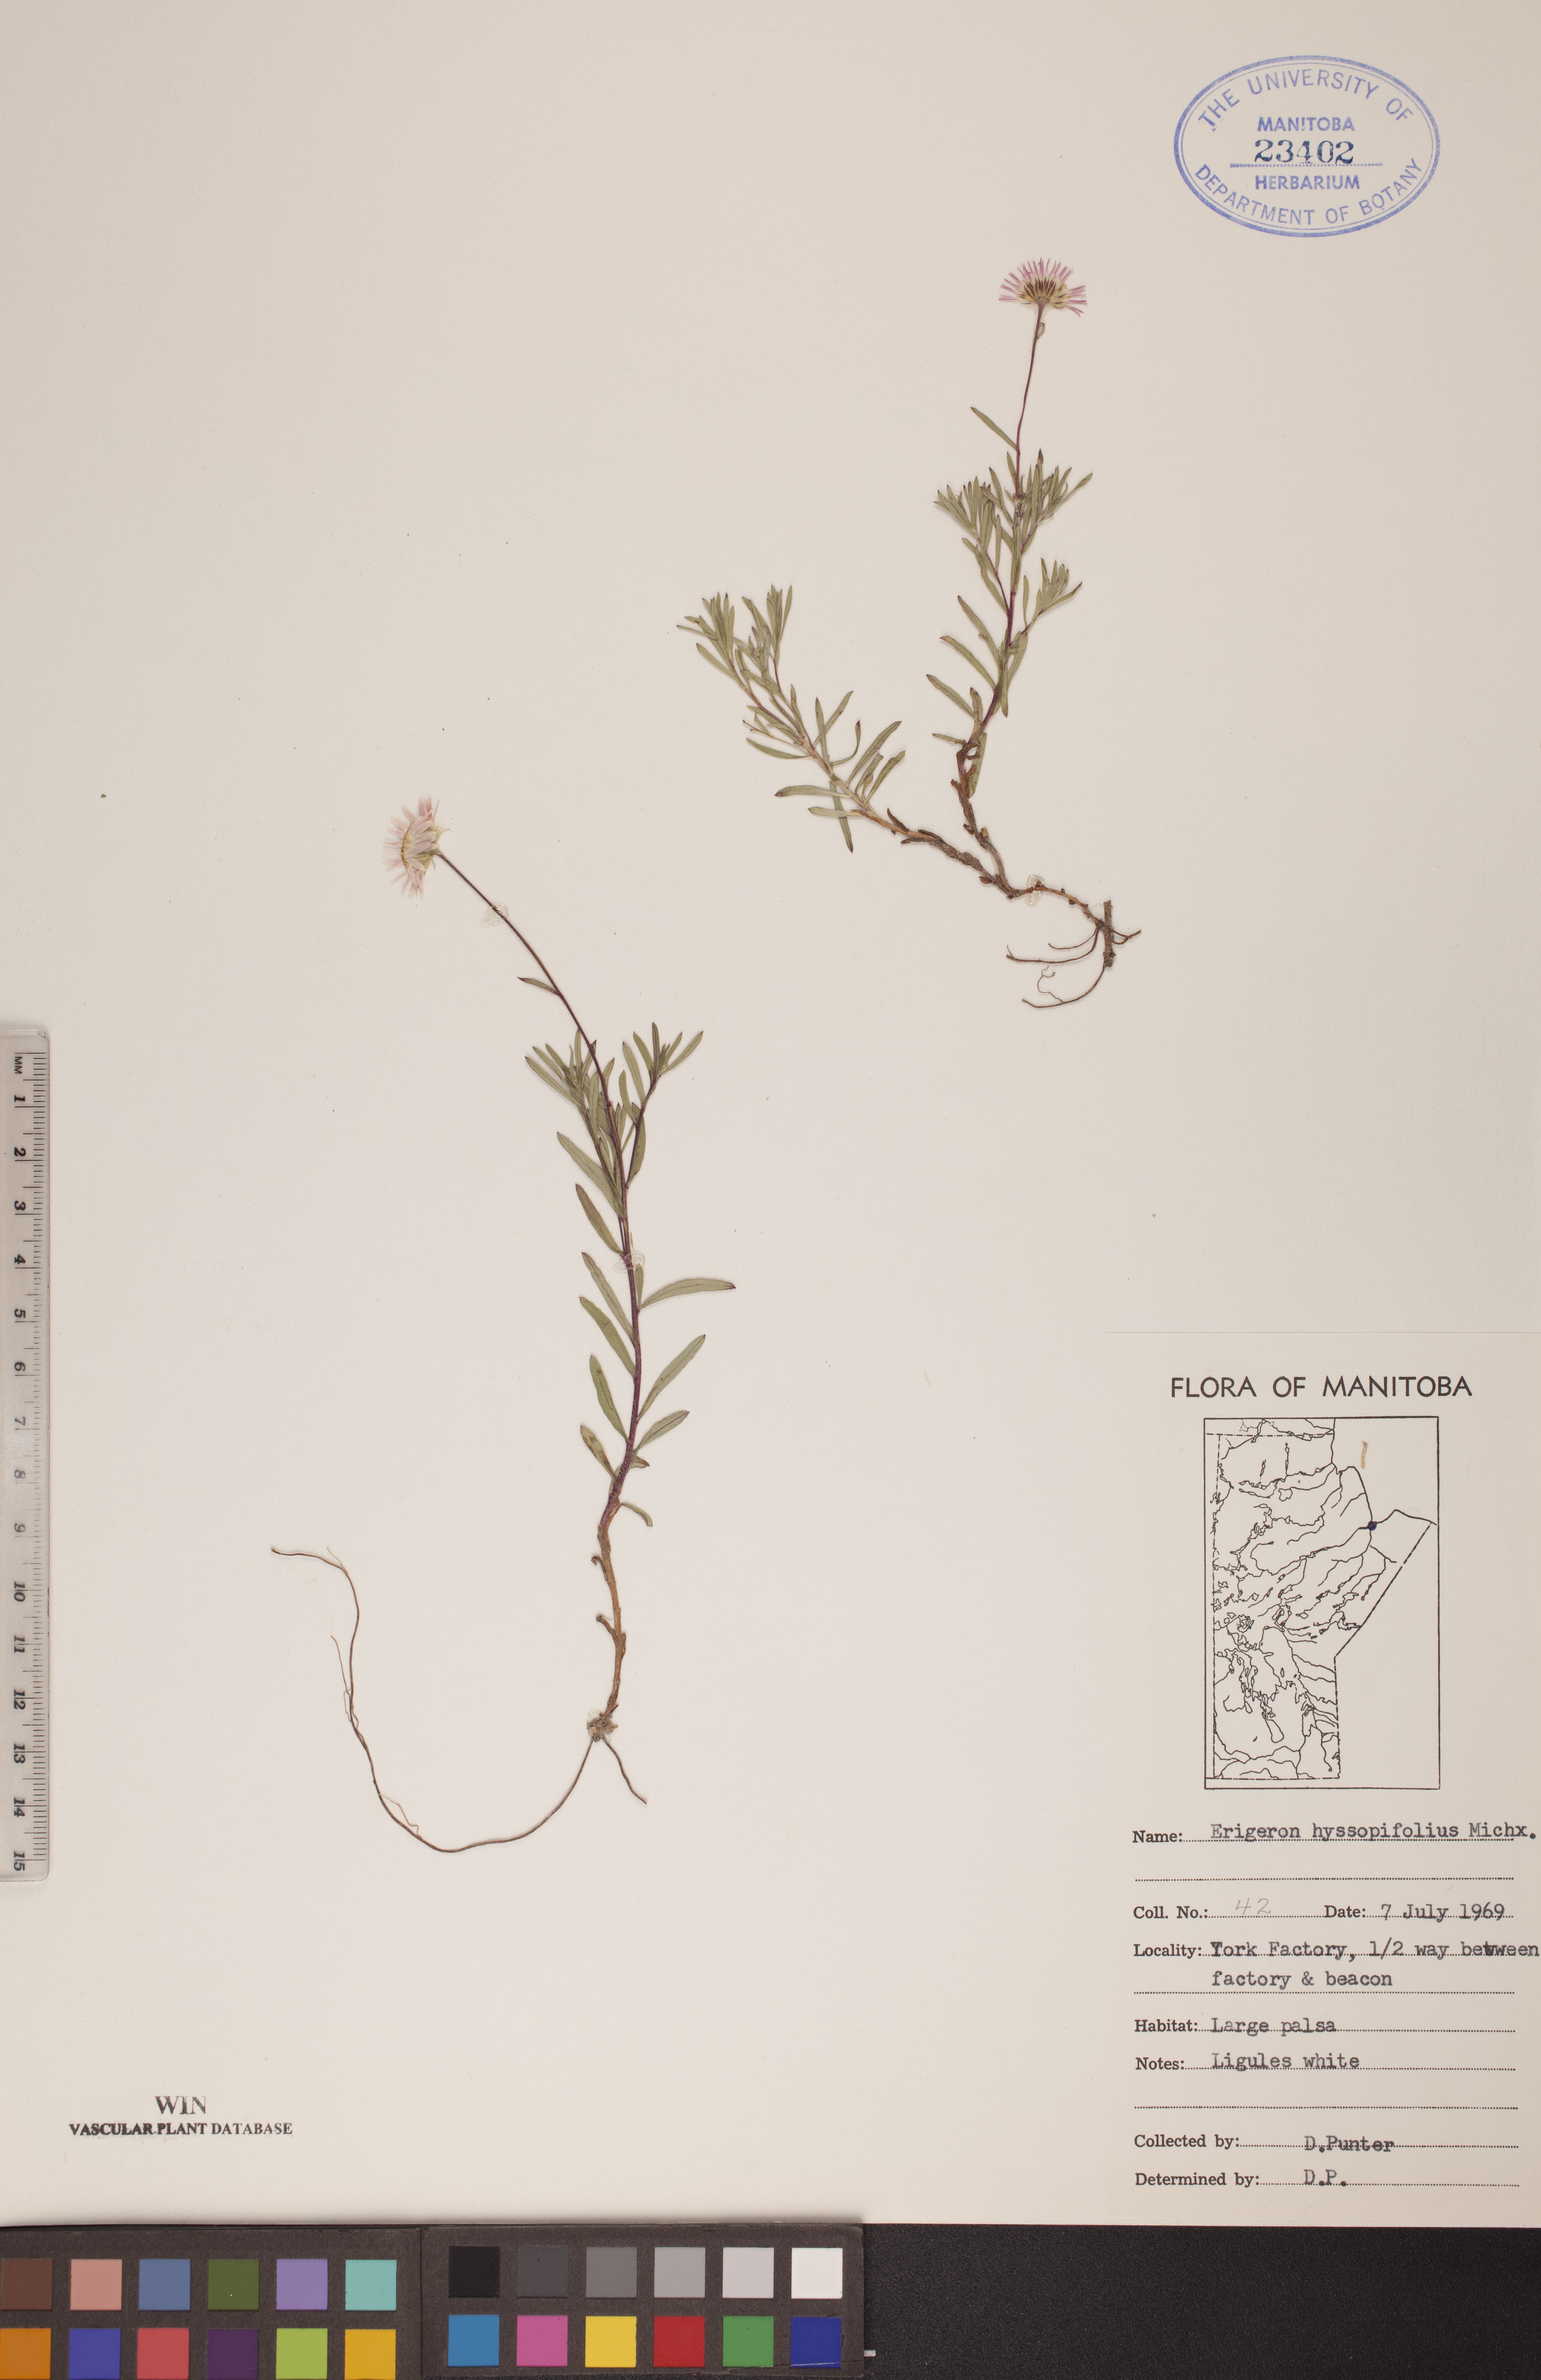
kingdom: Plantae
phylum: Tracheophyta
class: Magnoliopsida
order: Asterales
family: Asteraceae
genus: Erigeron
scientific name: Erigeron hyssopifolius
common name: Daisy fleabane
